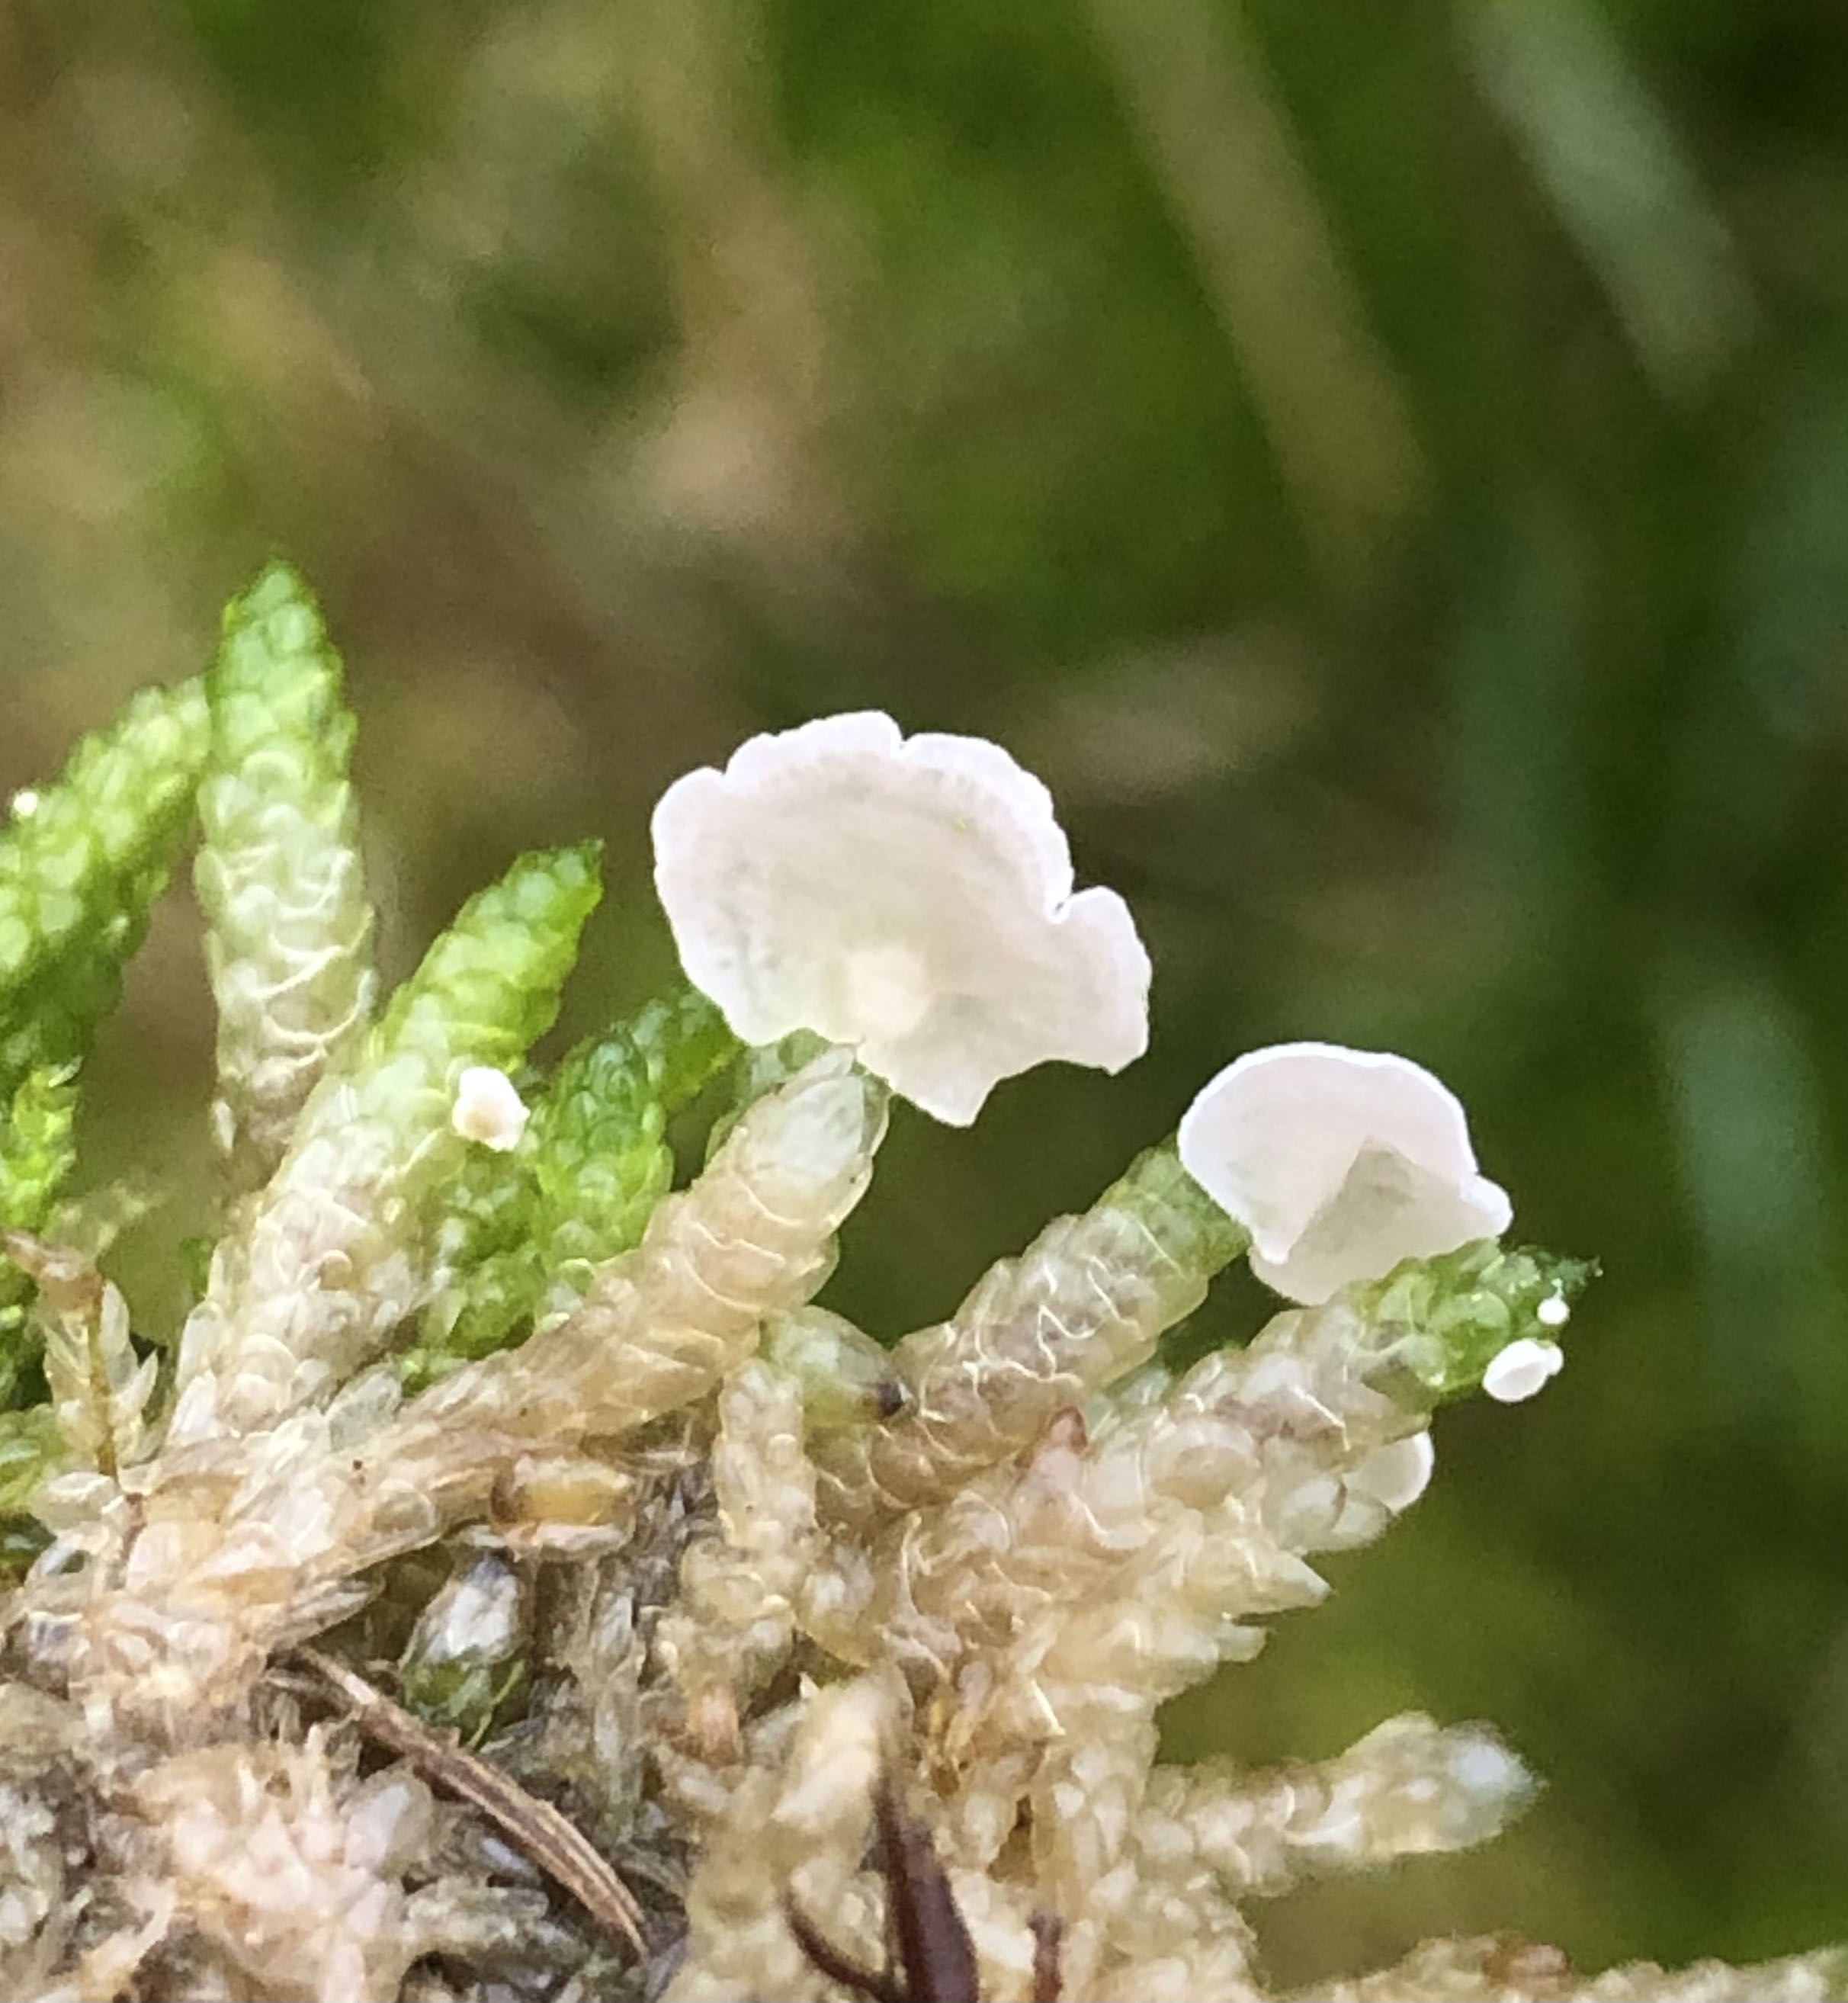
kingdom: Fungi
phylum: Basidiomycota
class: Agaricomycetes
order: Agaricales
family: Hygrophoraceae
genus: Arrhenia
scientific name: Arrhenia retiruga
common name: lille fontænehat
